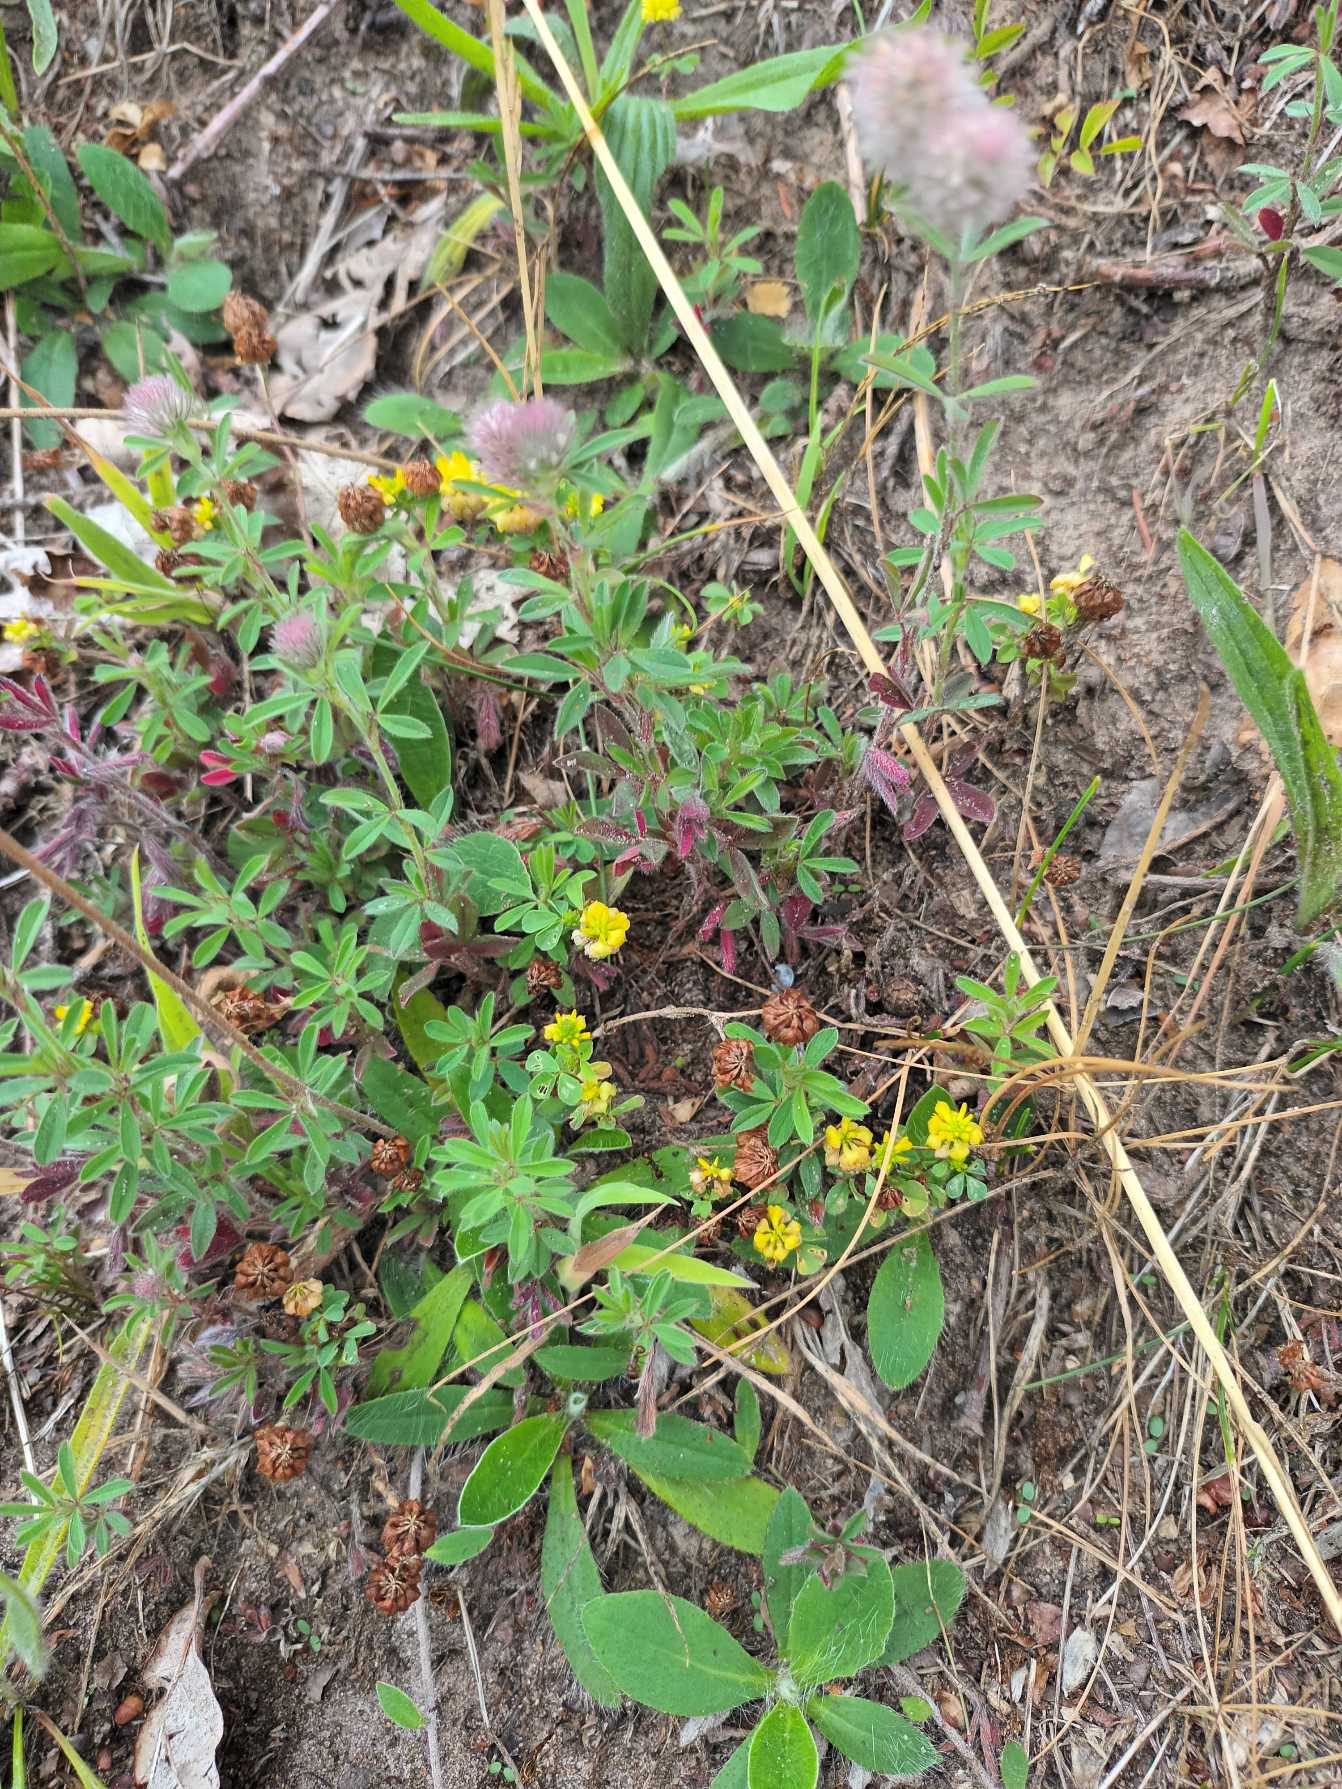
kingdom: Plantae
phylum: Tracheophyta
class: Magnoliopsida
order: Fabales
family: Fabaceae
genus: Trifolium
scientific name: Trifolium arvense
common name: Hare-kløver
